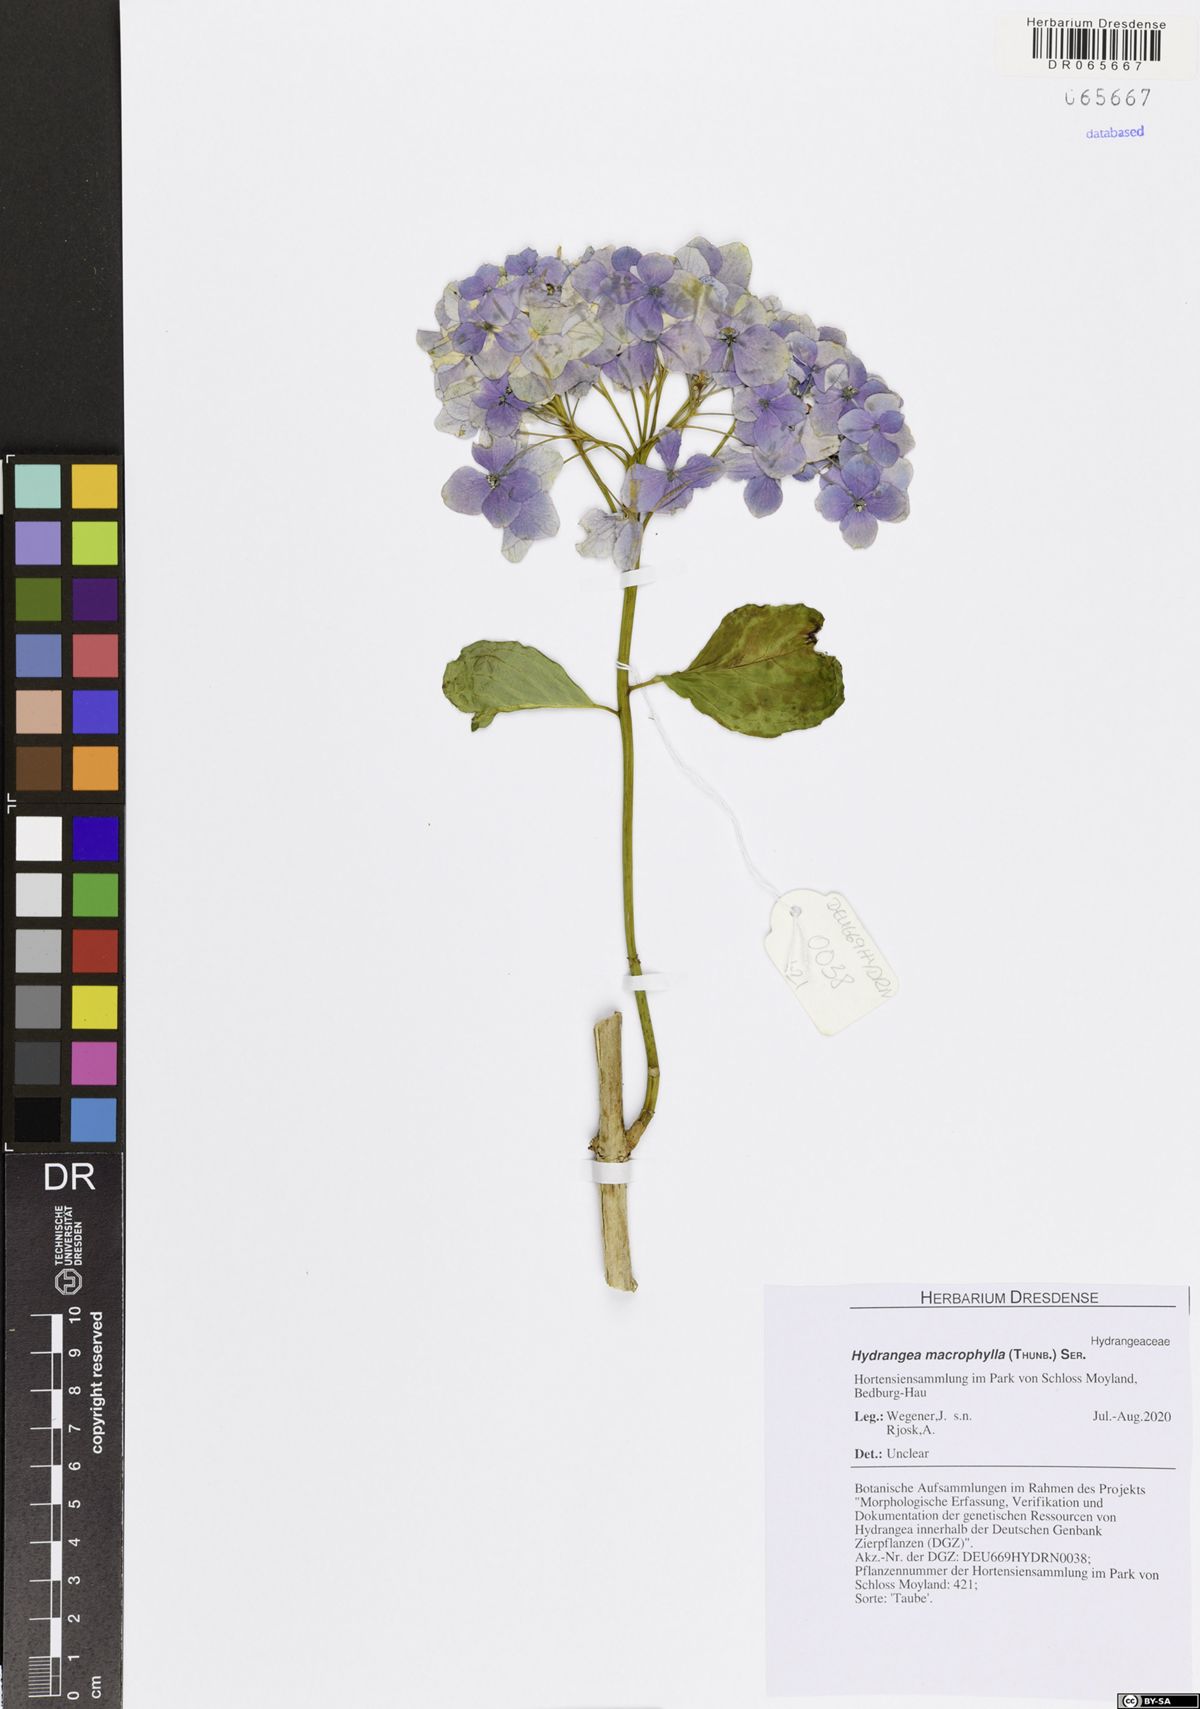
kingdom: Plantae
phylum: Tracheophyta
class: Magnoliopsida
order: Cornales
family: Hydrangeaceae
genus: Hydrangea
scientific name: Hydrangea macrophylla
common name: Hydrangea
